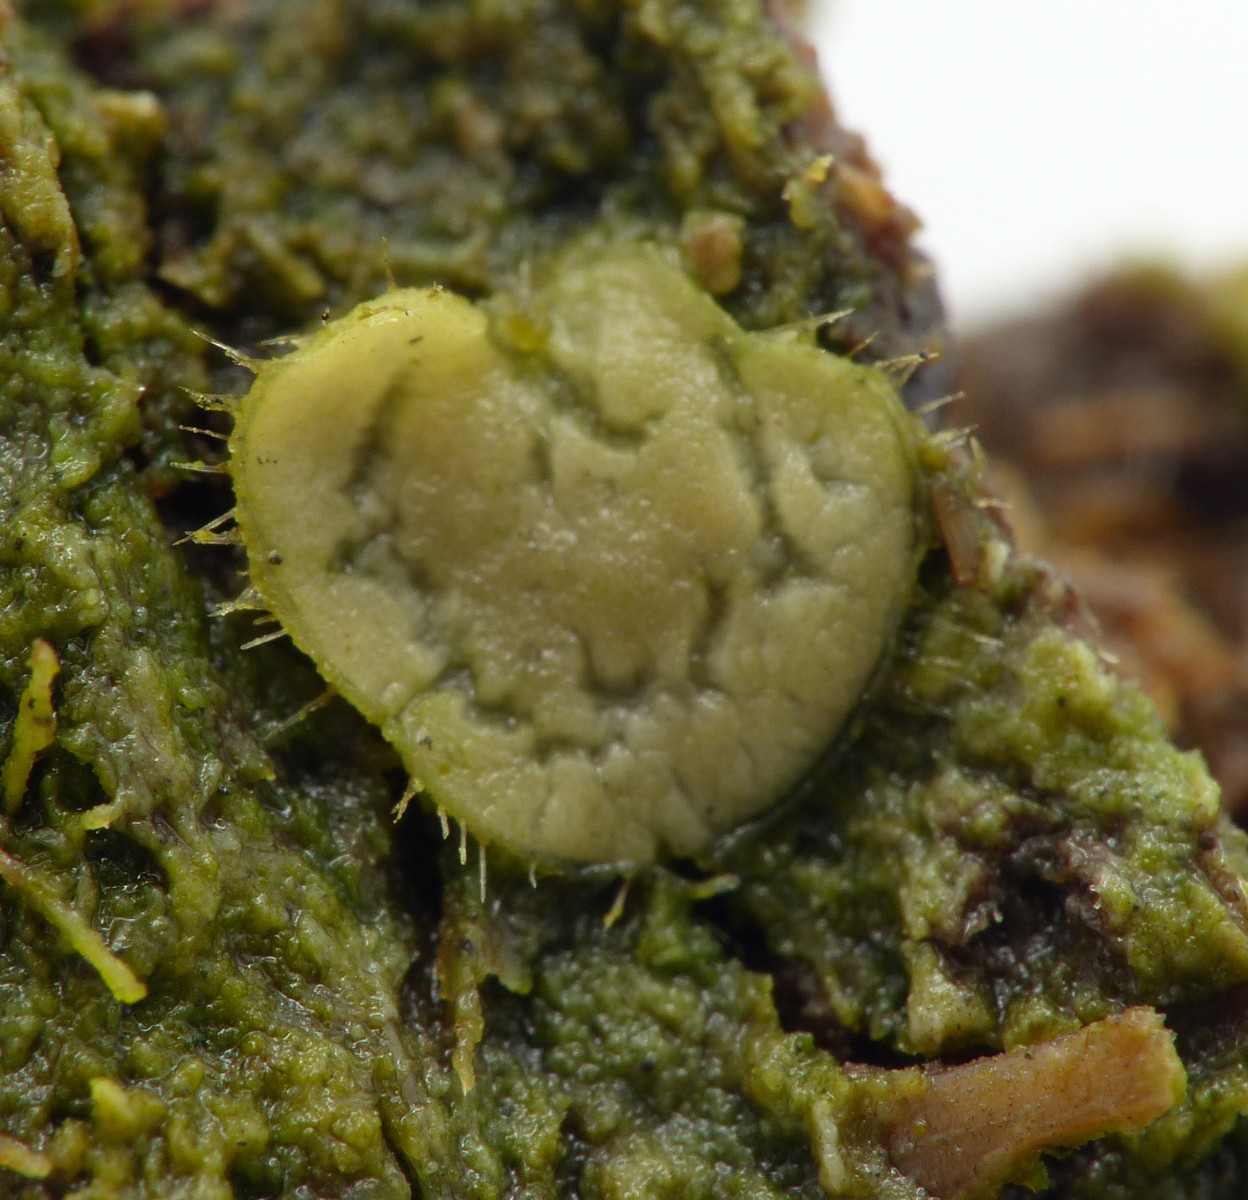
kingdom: Fungi
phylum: Ascomycota
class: Pezizomycetes
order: Pezizales
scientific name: Pezizales
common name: bægersvampordenen
